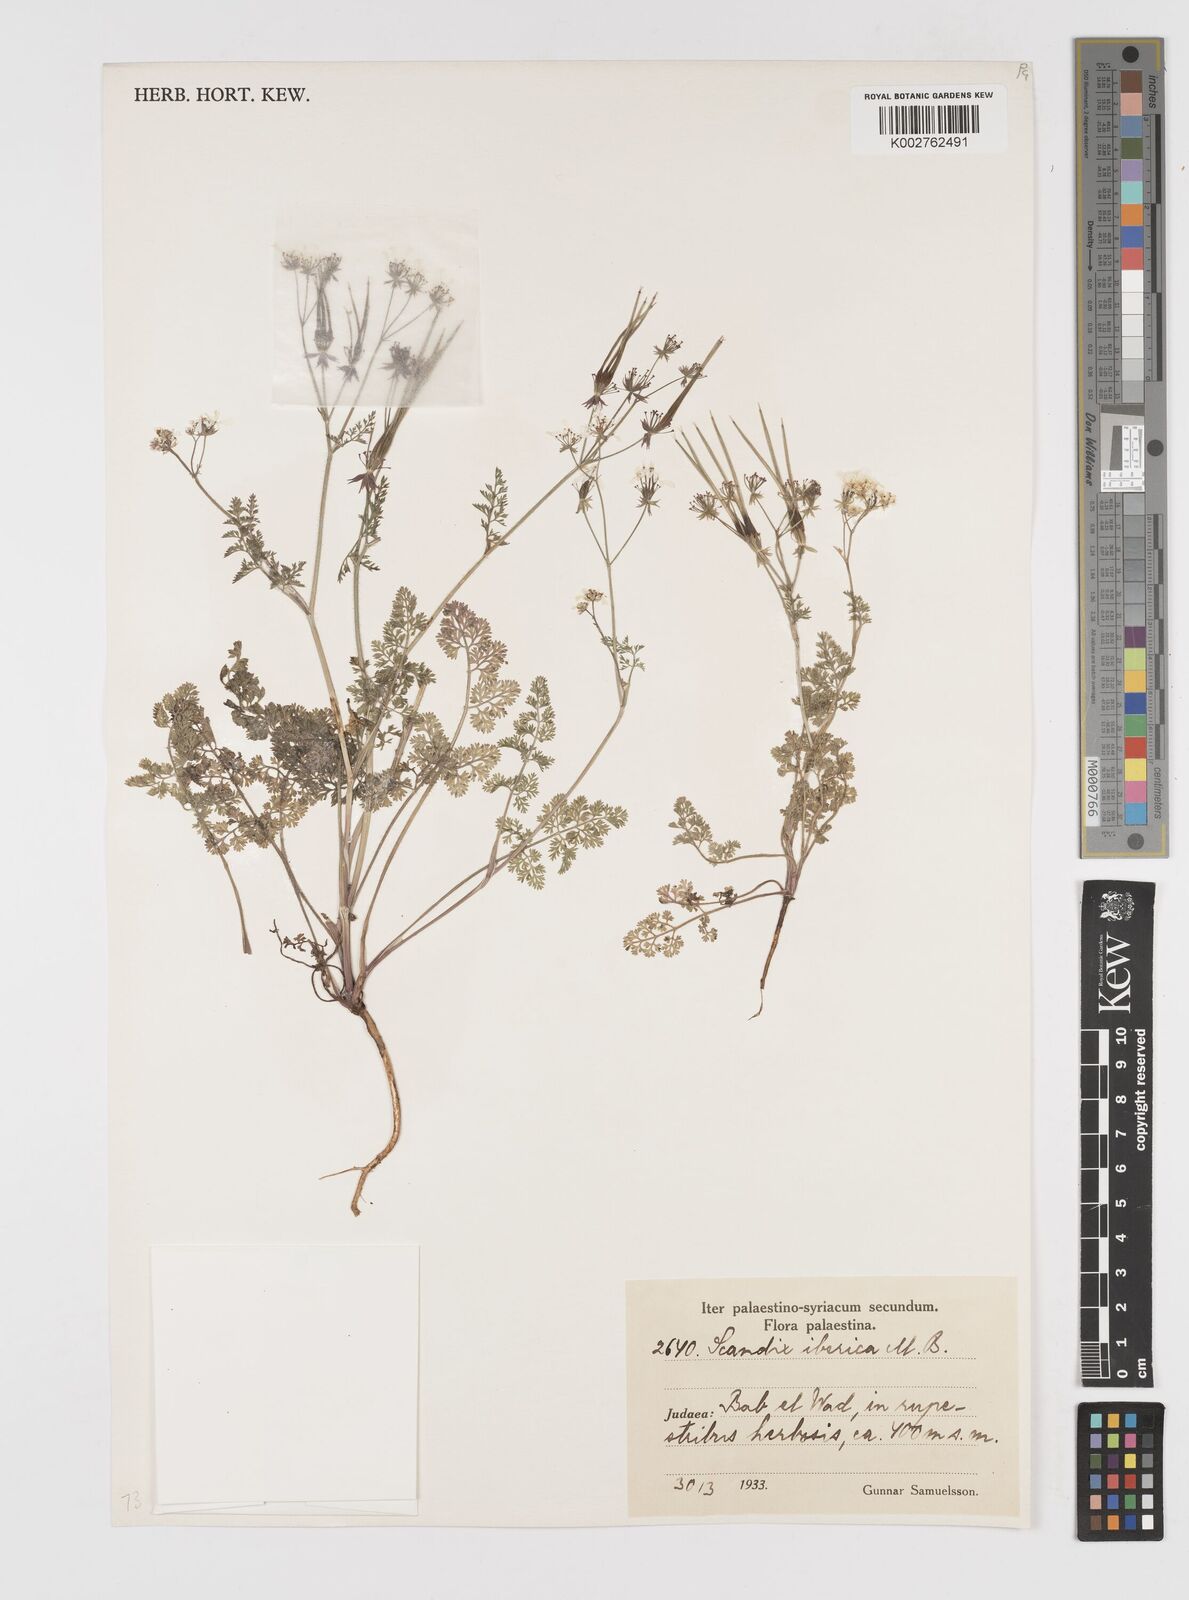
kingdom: Plantae
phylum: Tracheophyta
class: Magnoliopsida
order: Apiales
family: Apiaceae
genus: Scandix
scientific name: Scandix iberica
